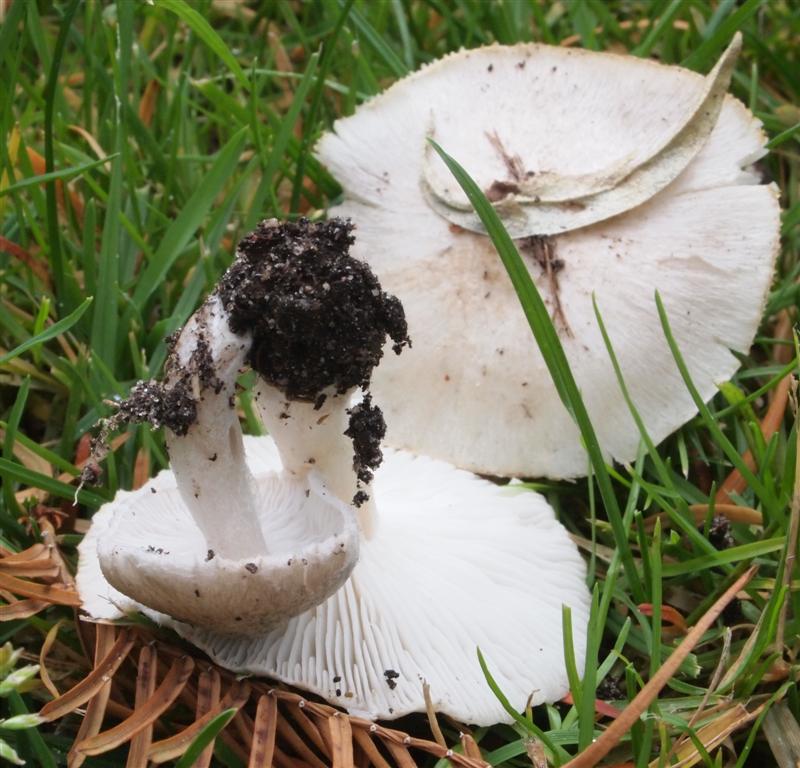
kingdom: Fungi
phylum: Basidiomycota
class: Agaricomycetes
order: Agaricales
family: Tricholomataceae
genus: Tricholoma
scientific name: Tricholoma argyraceum
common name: slør-ridderhat
